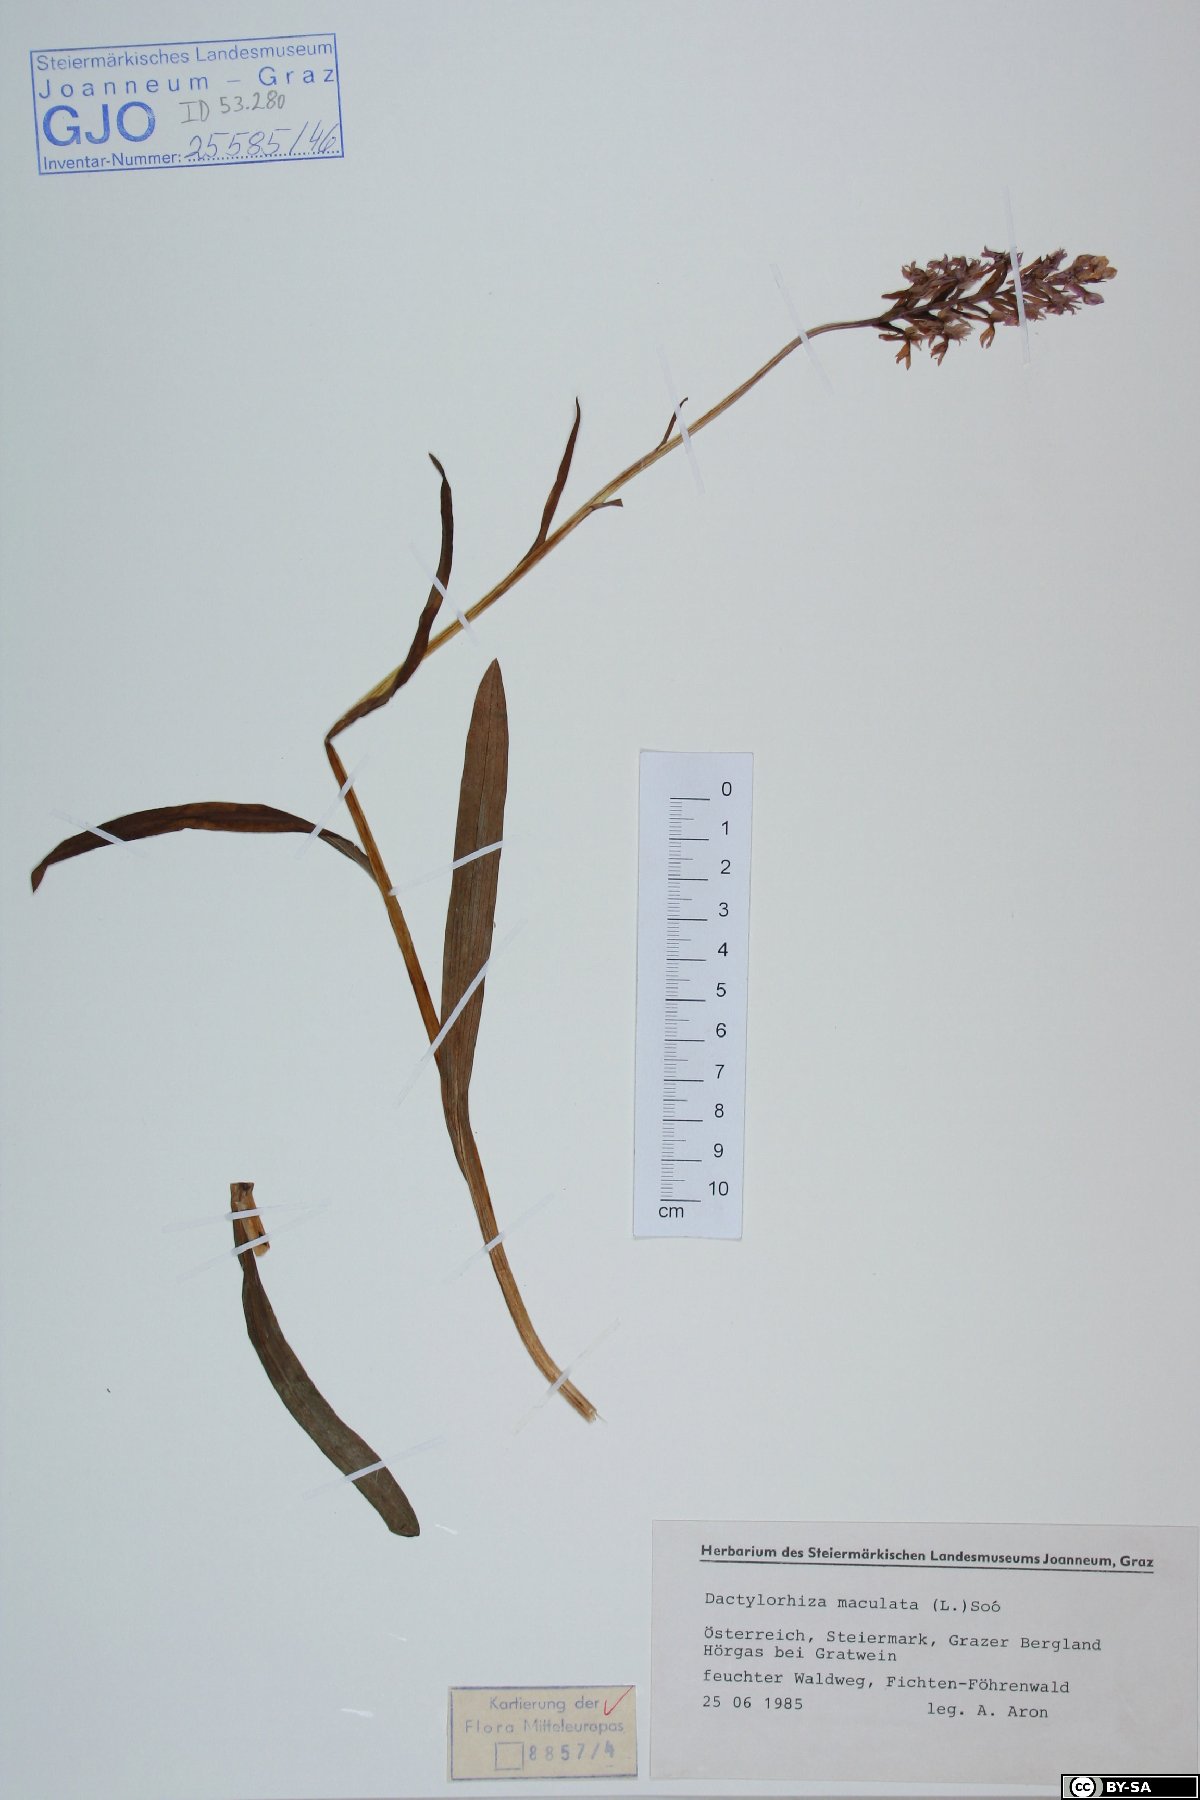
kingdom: Plantae
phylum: Tracheophyta
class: Liliopsida
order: Asparagales
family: Orchidaceae
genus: Dactylorhiza
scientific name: Dactylorhiza maculata
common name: Heath spotted-orchid
